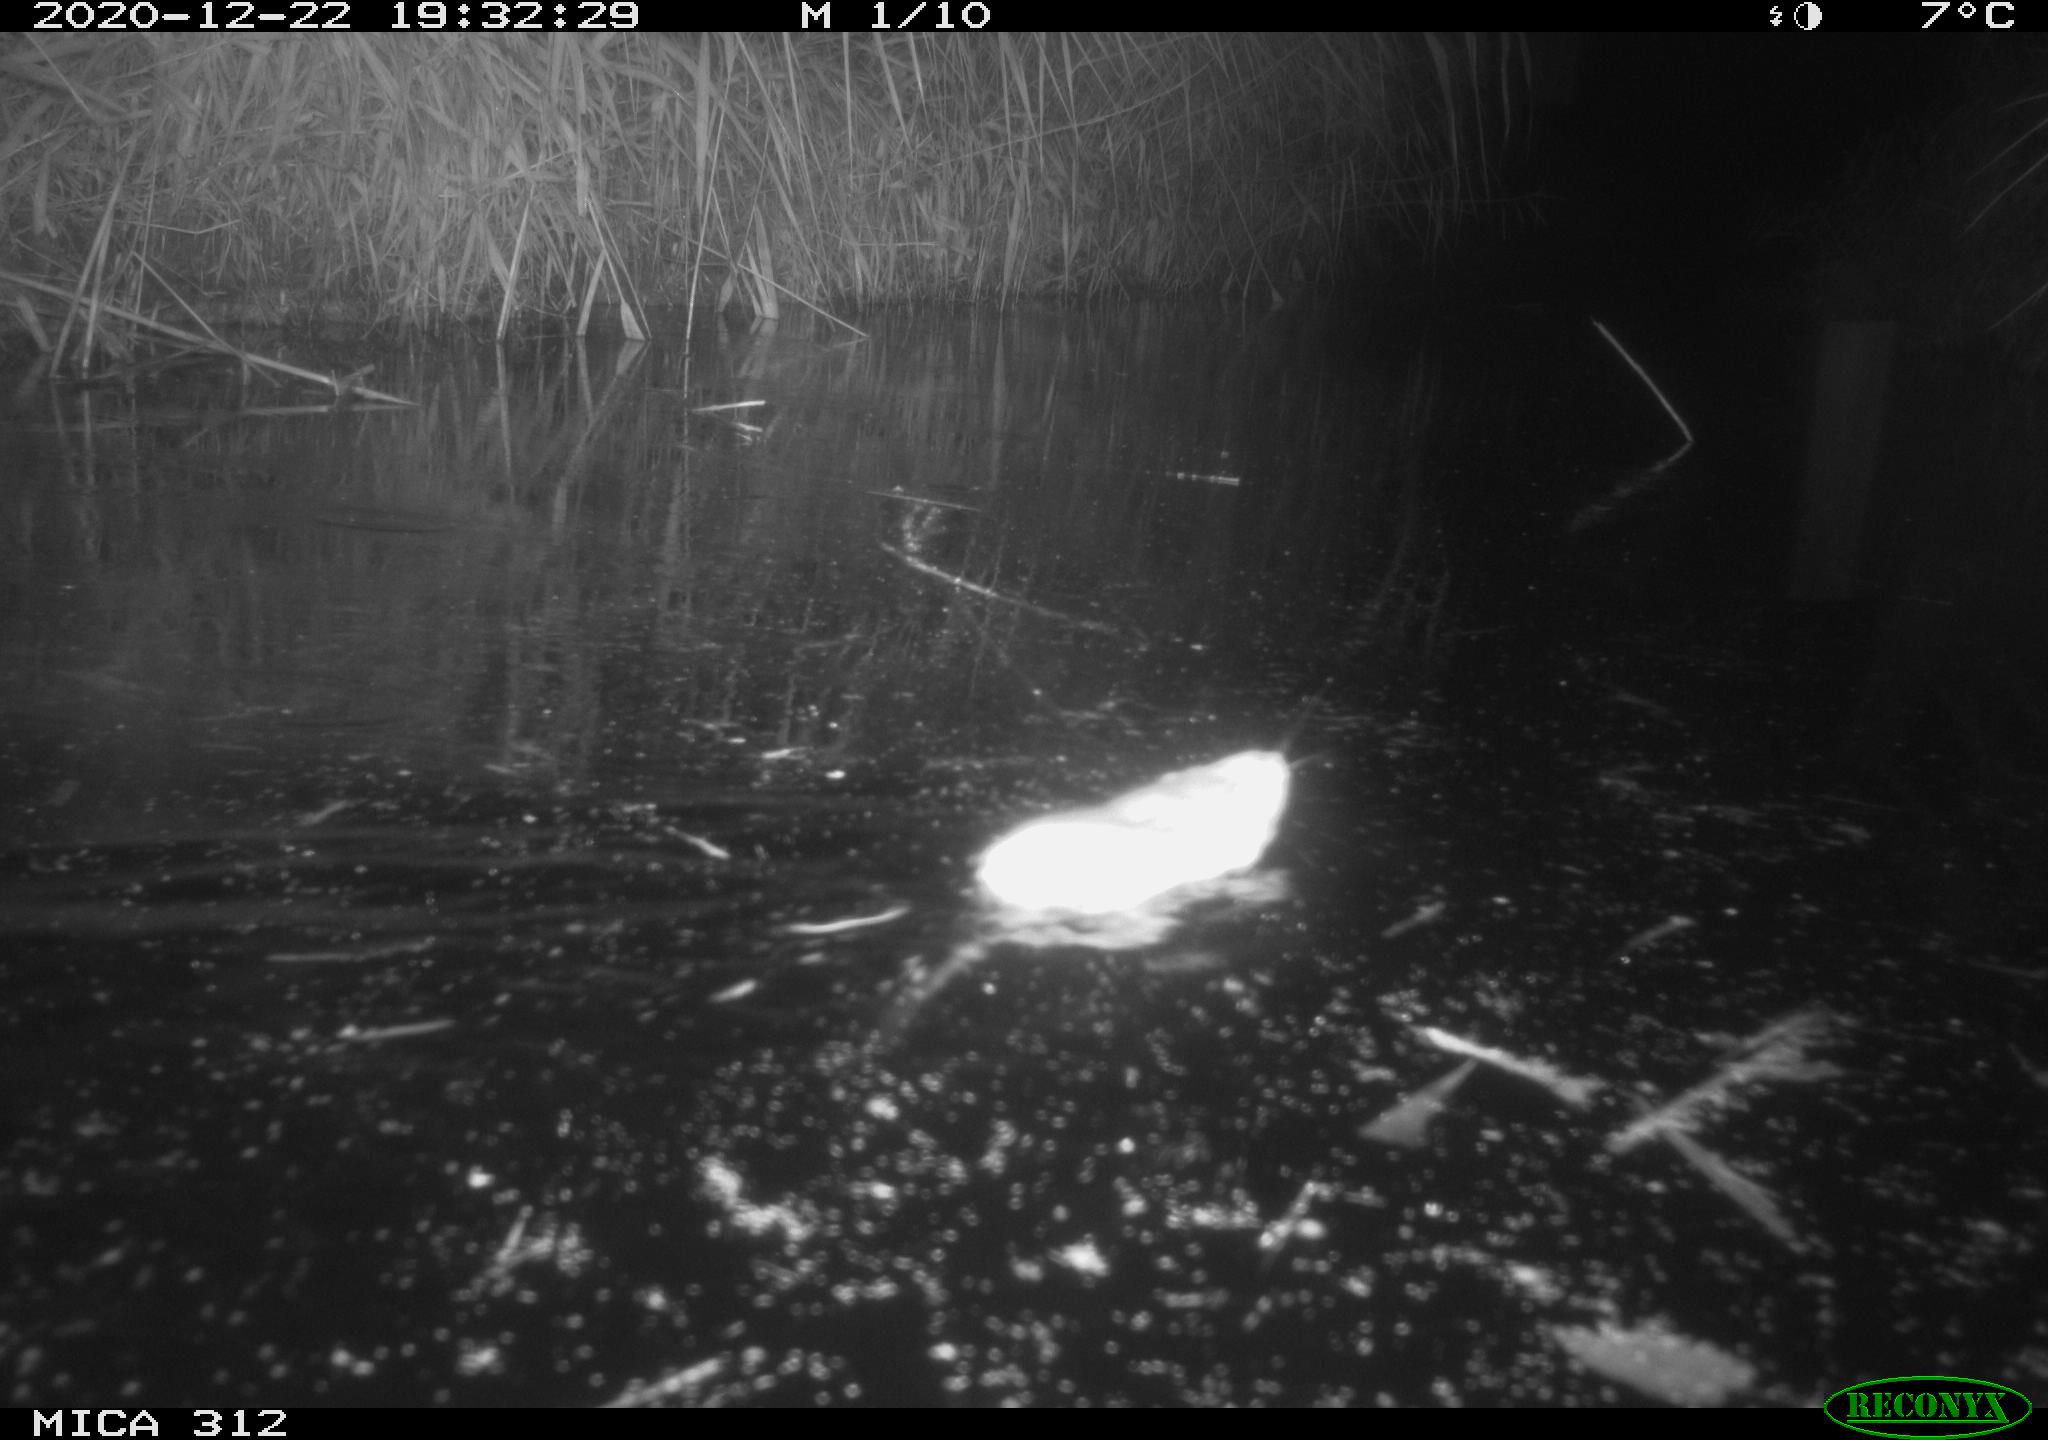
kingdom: Animalia
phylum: Chordata
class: Mammalia
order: Rodentia
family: Muridae
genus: Rattus
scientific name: Rattus norvegicus
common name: Brown rat
